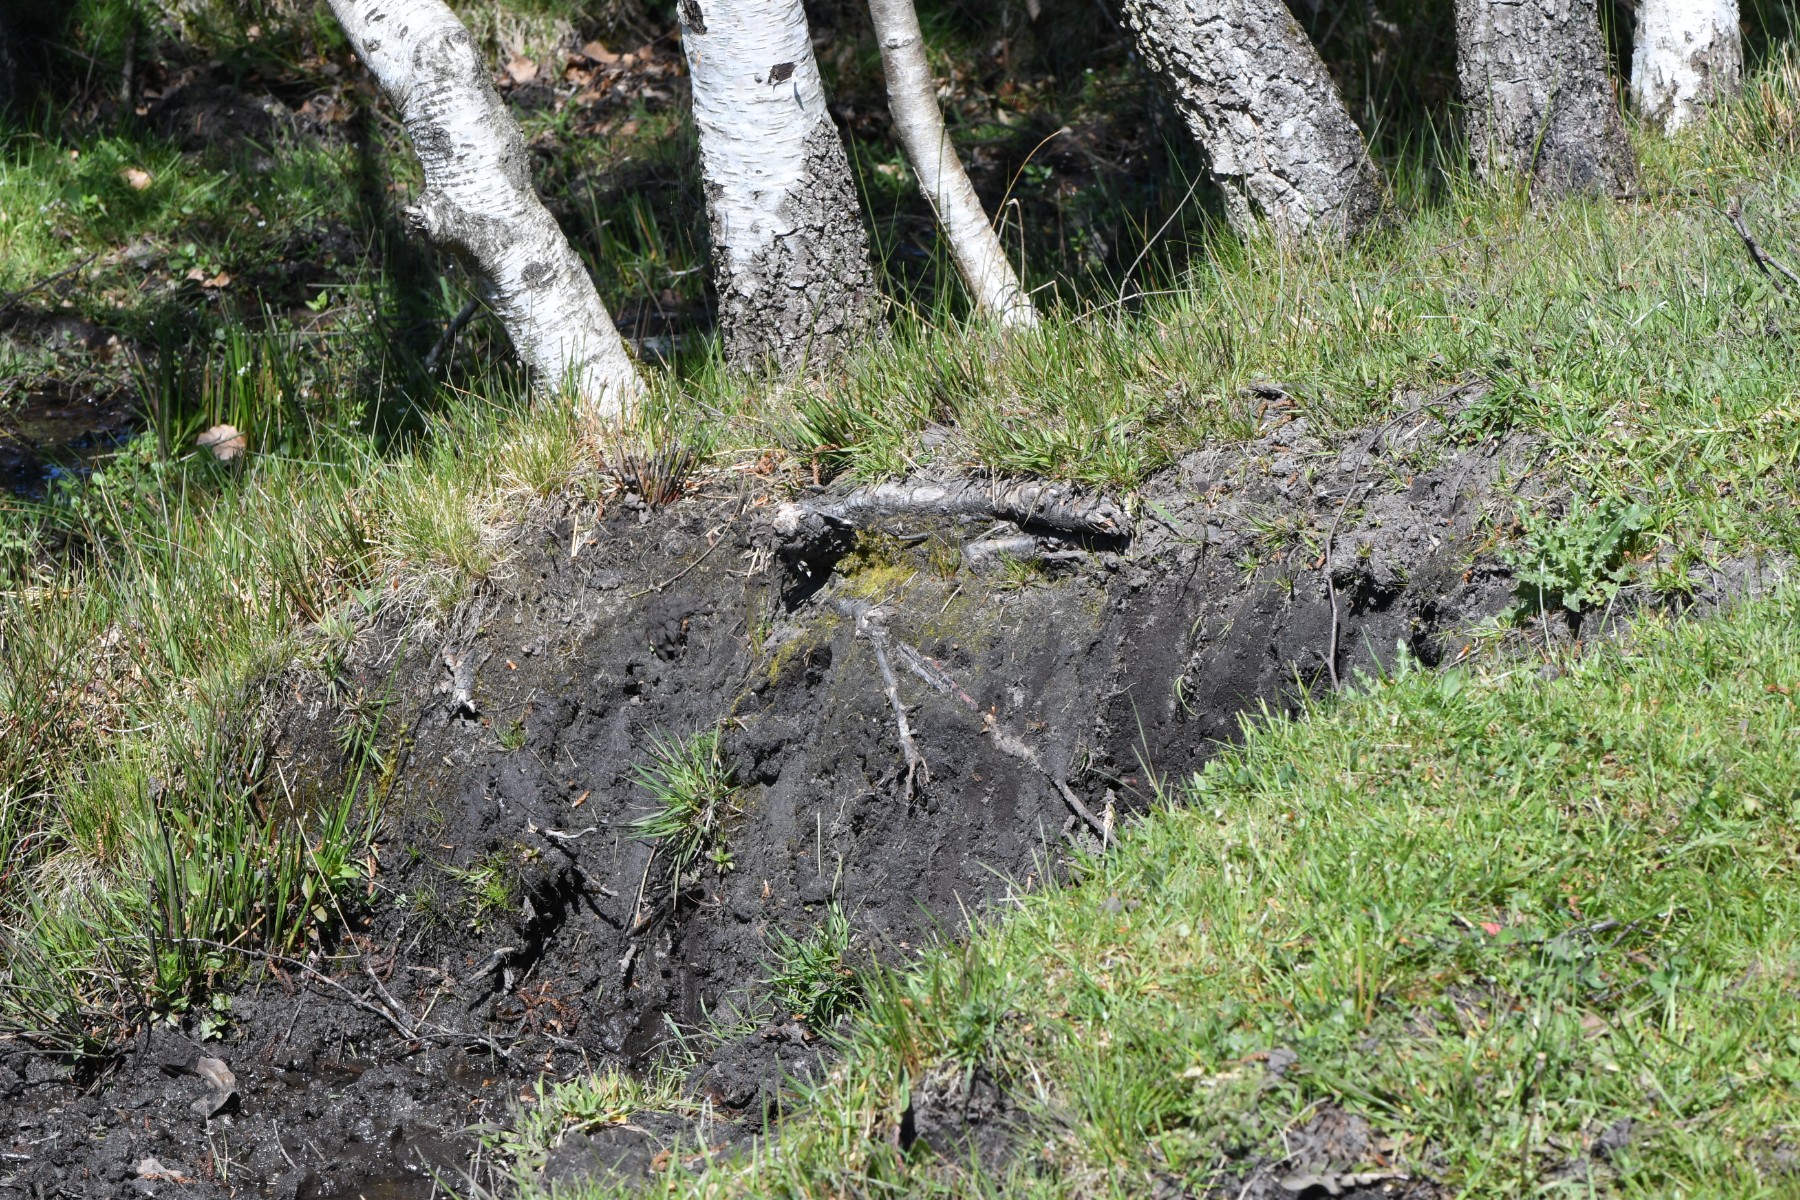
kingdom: Fungi
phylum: Basidiomycota
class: Agaricomycetes
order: Agaricales
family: Inocybaceae
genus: Inocybe
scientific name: Inocybe
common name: trævlhat
